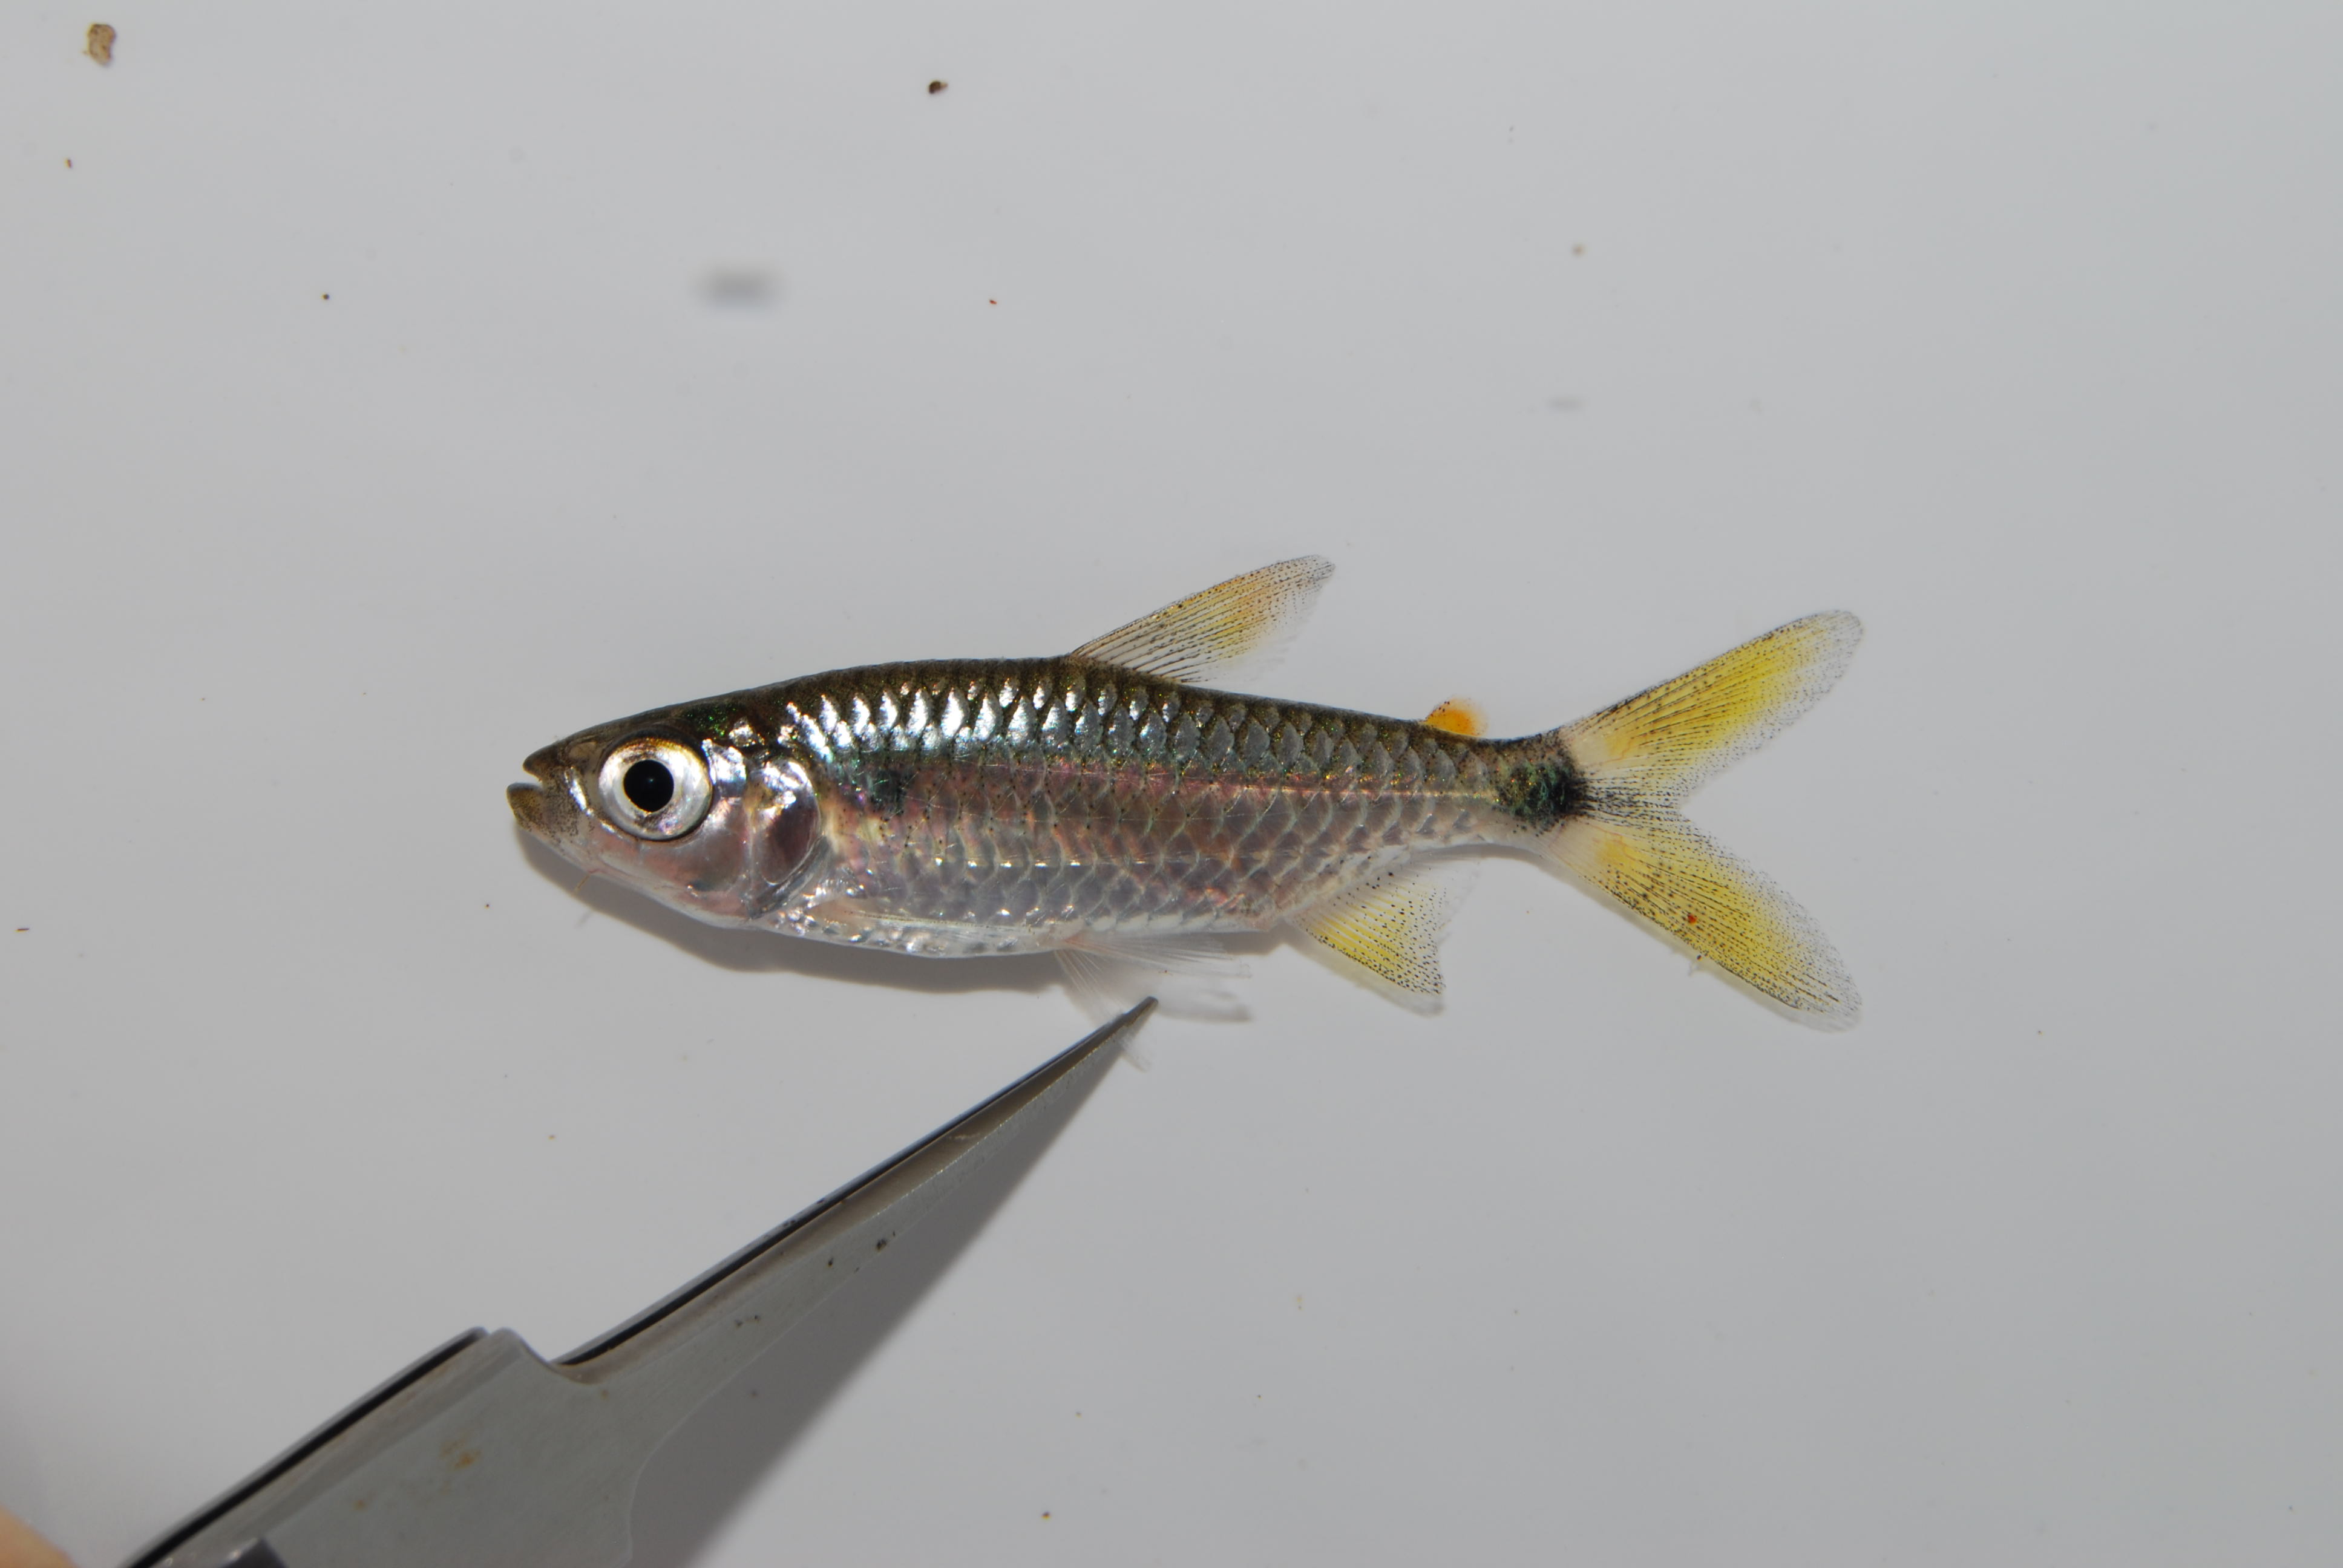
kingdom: Animalia
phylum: Chordata
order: Characiformes
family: Alestidae
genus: Brycinus
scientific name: Brycinus imberi
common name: Imberi
